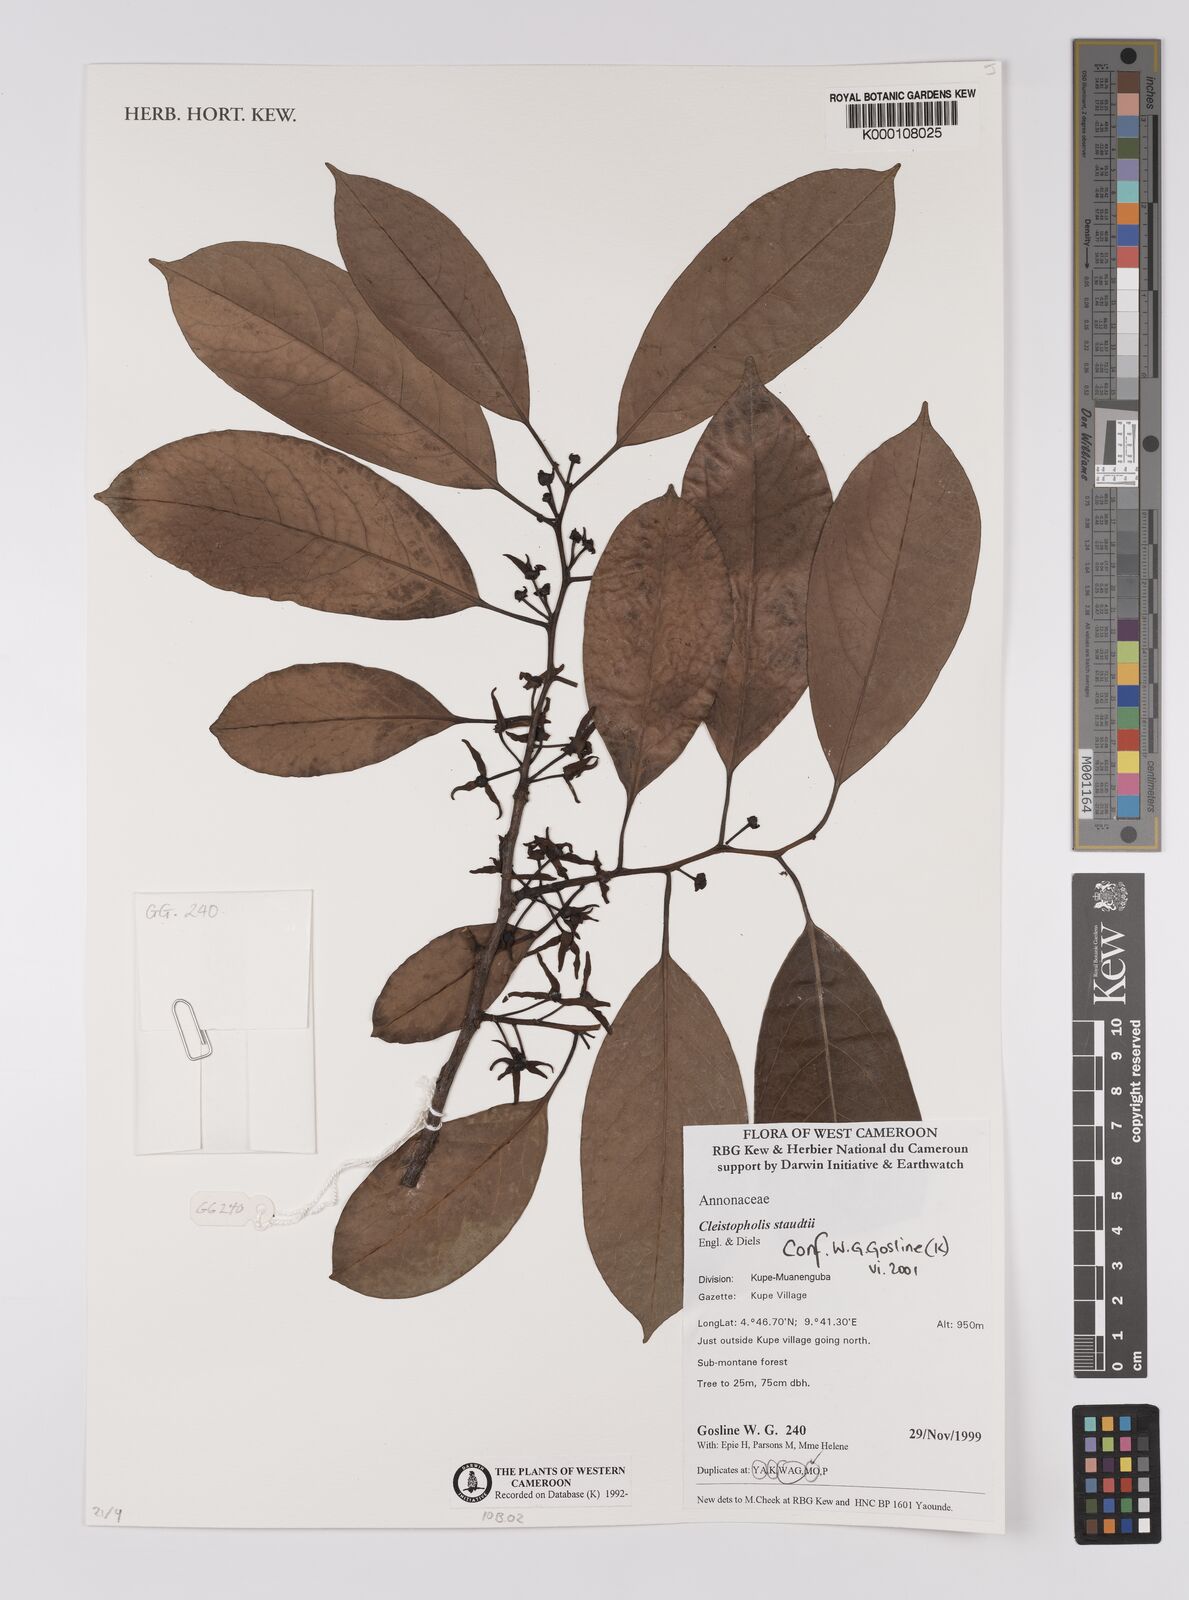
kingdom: Plantae
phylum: Tracheophyta
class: Magnoliopsida
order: Magnoliales
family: Annonaceae
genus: Cleistopholis
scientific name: Cleistopholis staudtii
